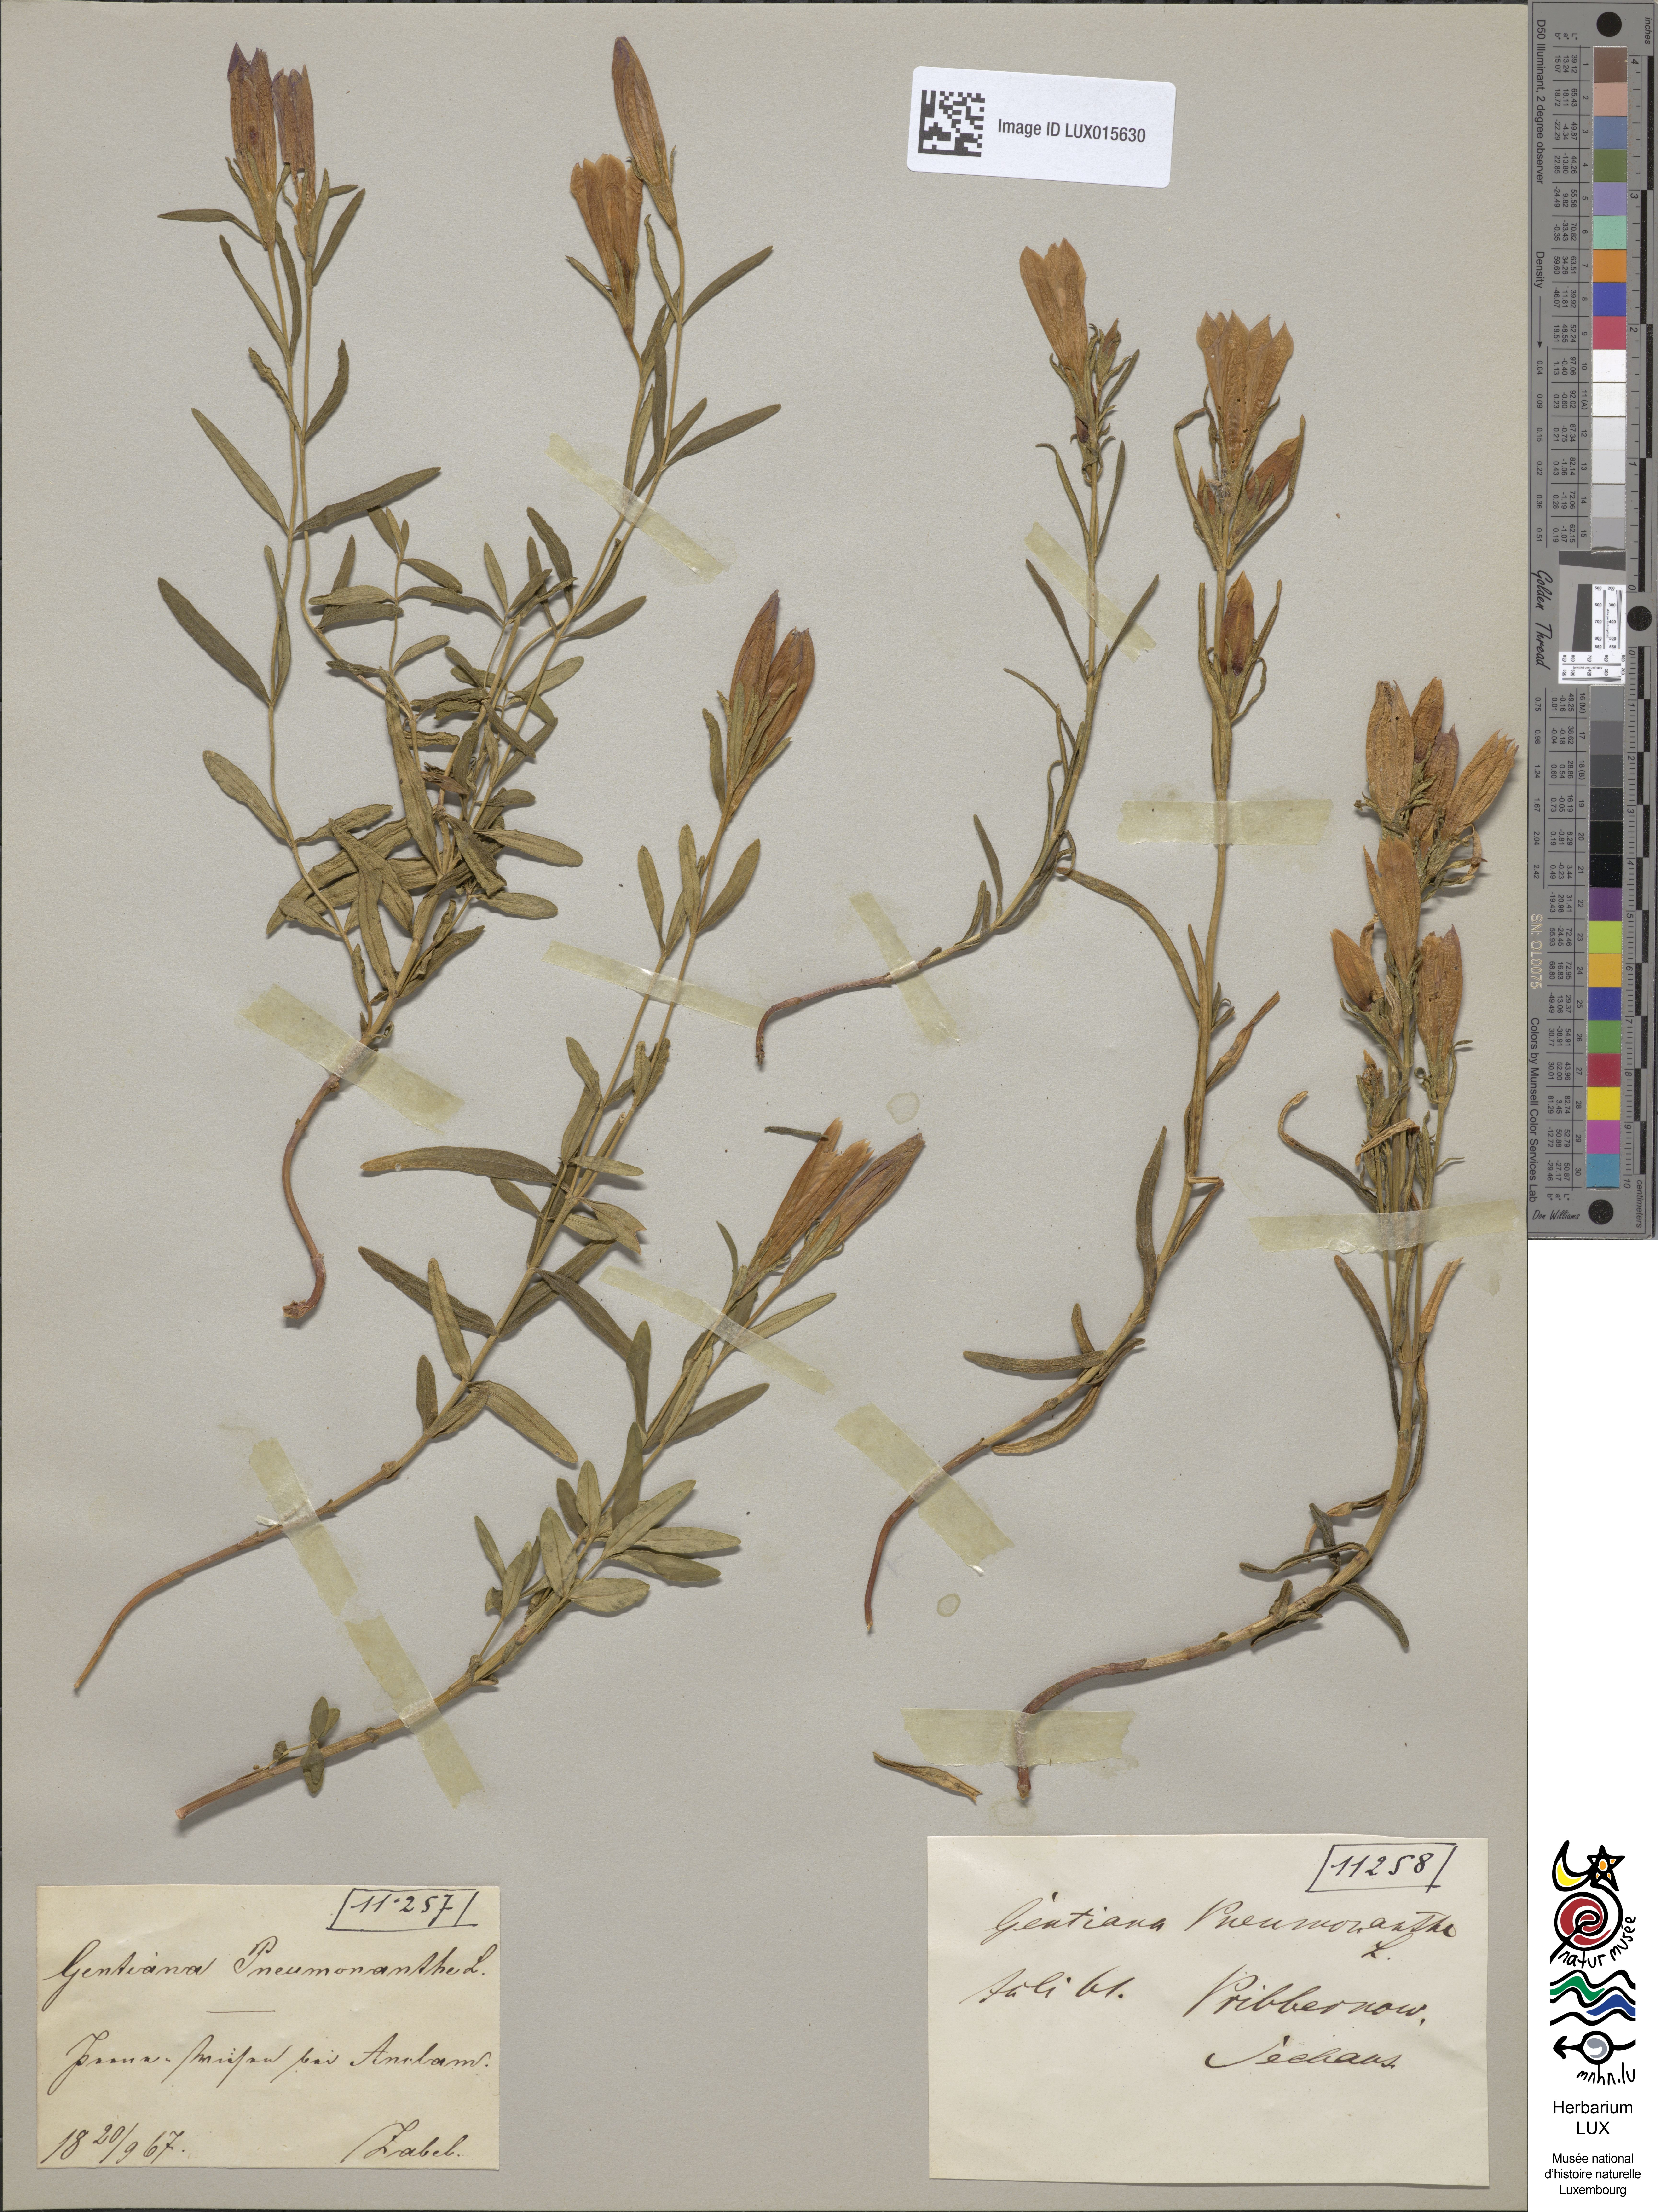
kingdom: Plantae
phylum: Tracheophyta
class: Magnoliopsida
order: Gentianales
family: Gentianaceae
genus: Gentiana
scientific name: Gentiana pneumonanthe
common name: Marsh gentian
